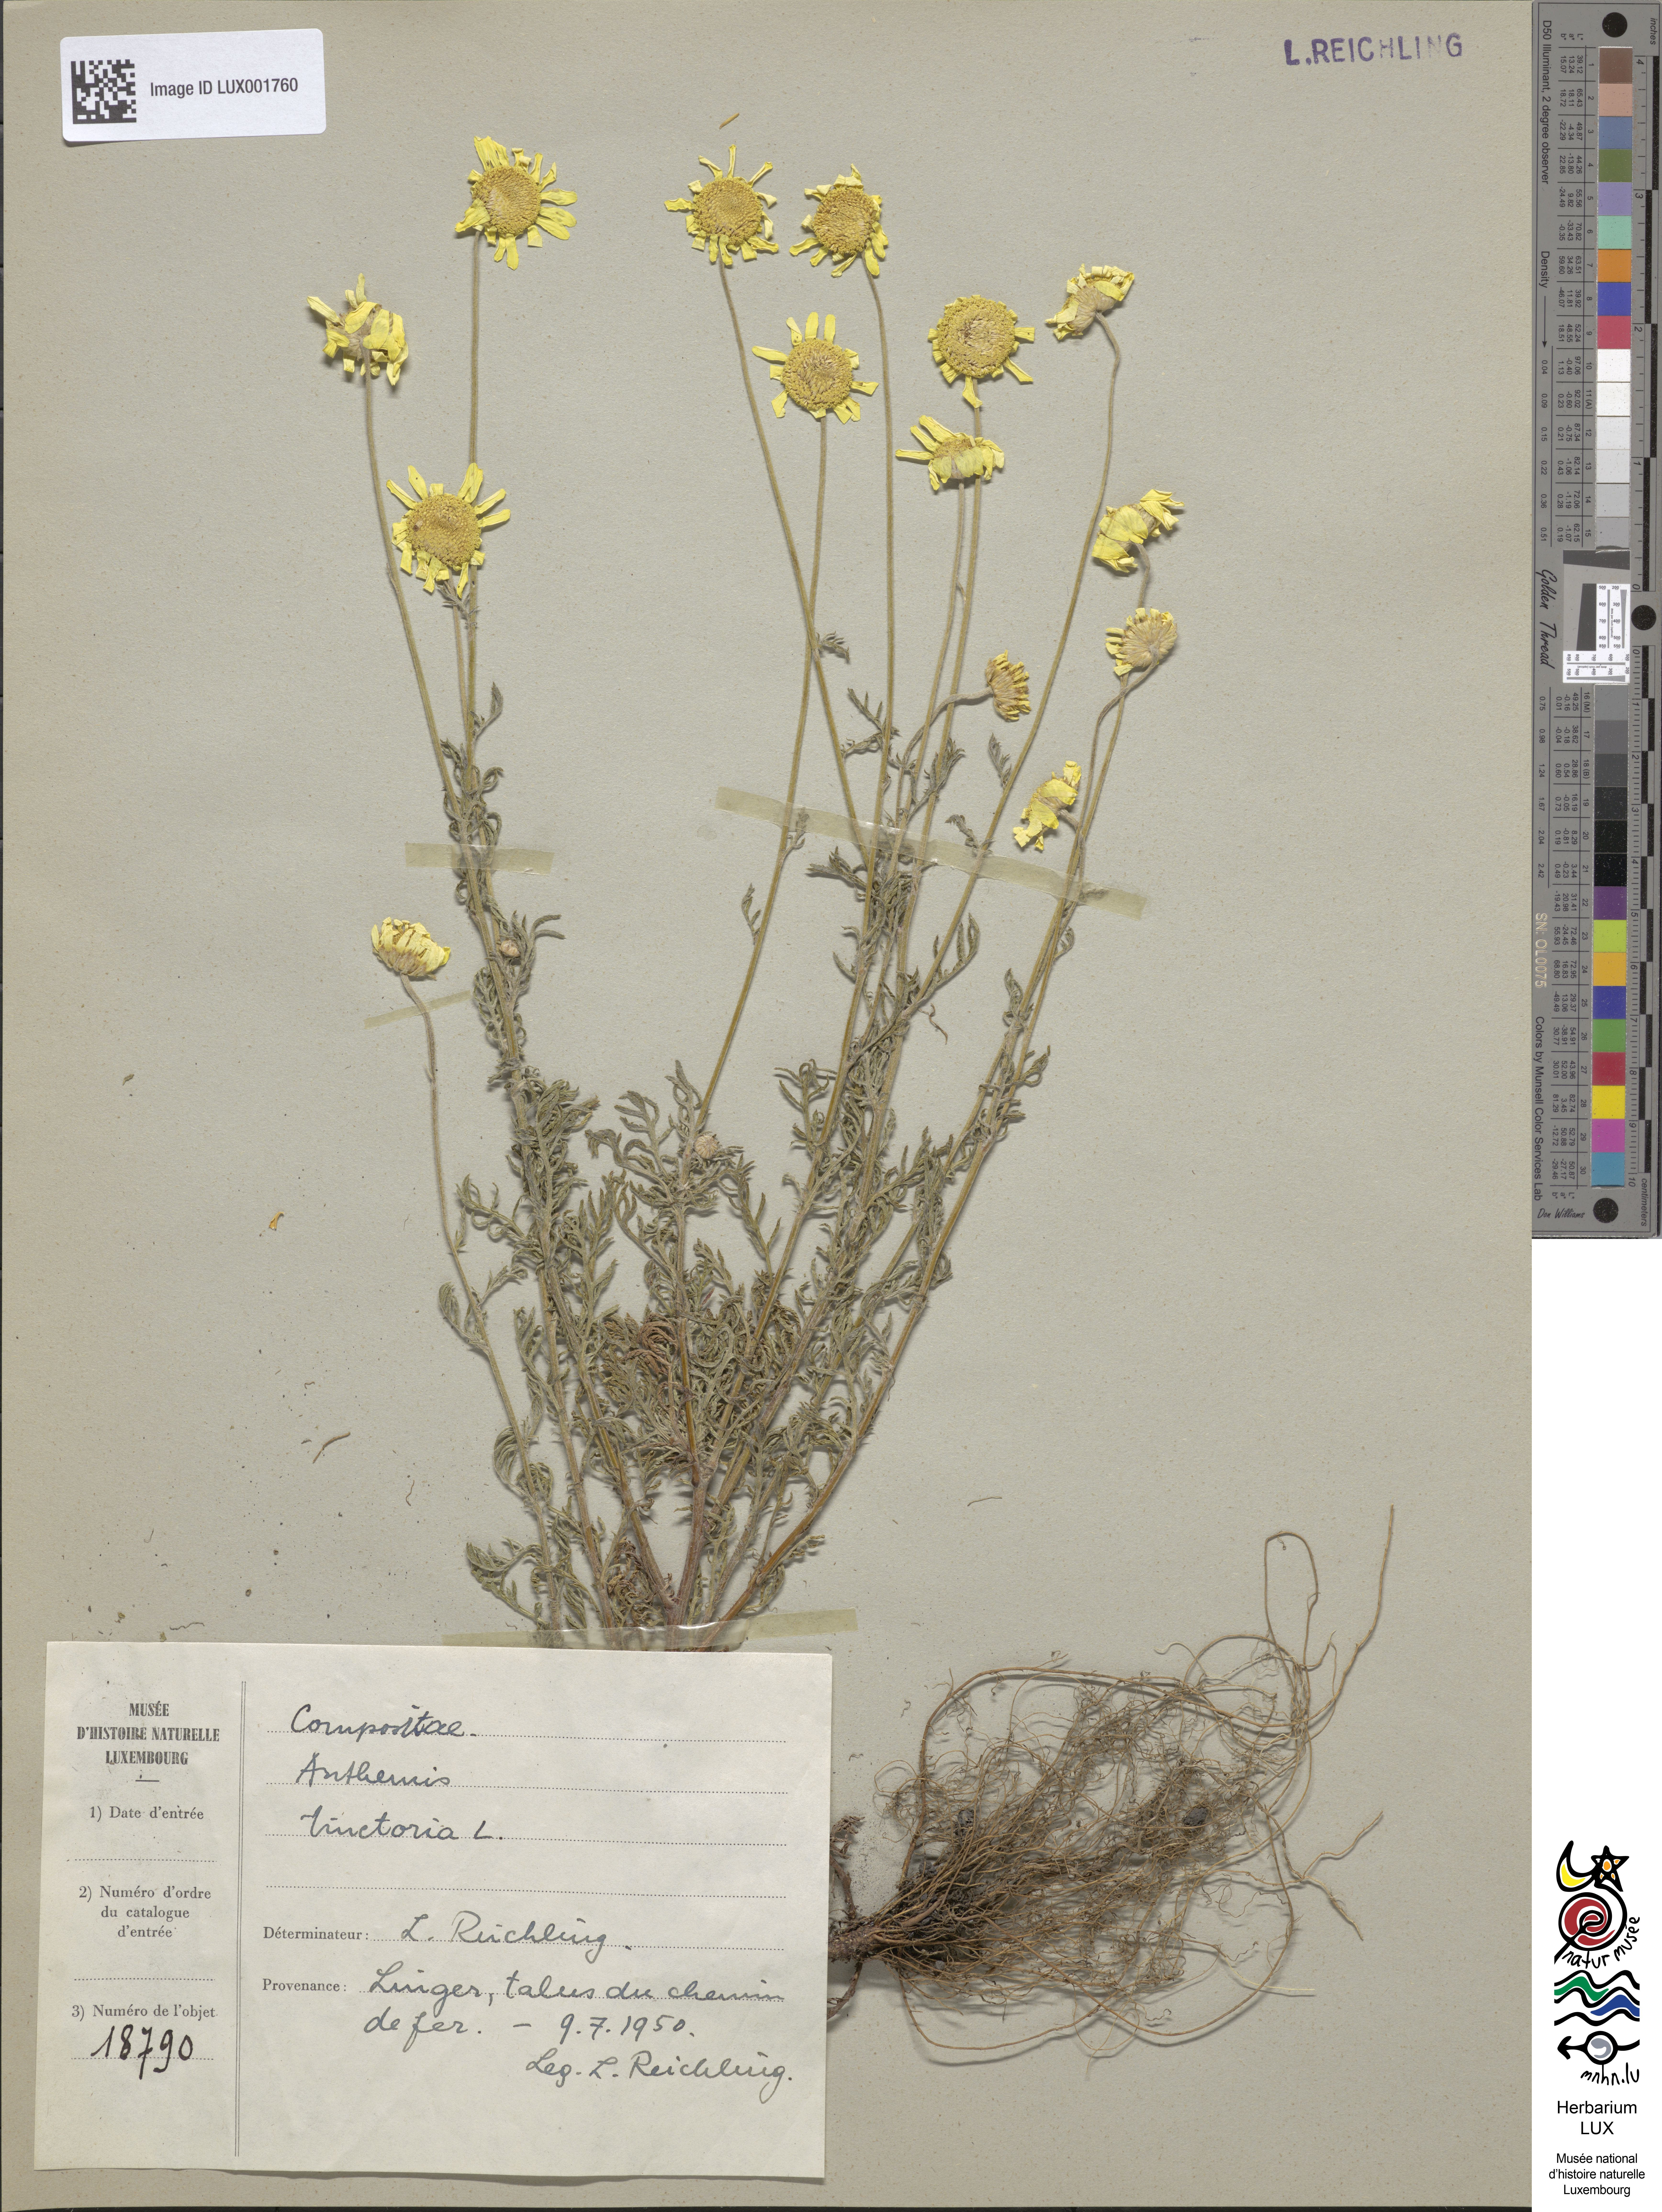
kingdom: Plantae
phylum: Tracheophyta
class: Magnoliopsida
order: Asterales
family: Asteraceae
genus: Cota
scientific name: Cota tinctoria
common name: Golden chamomile
